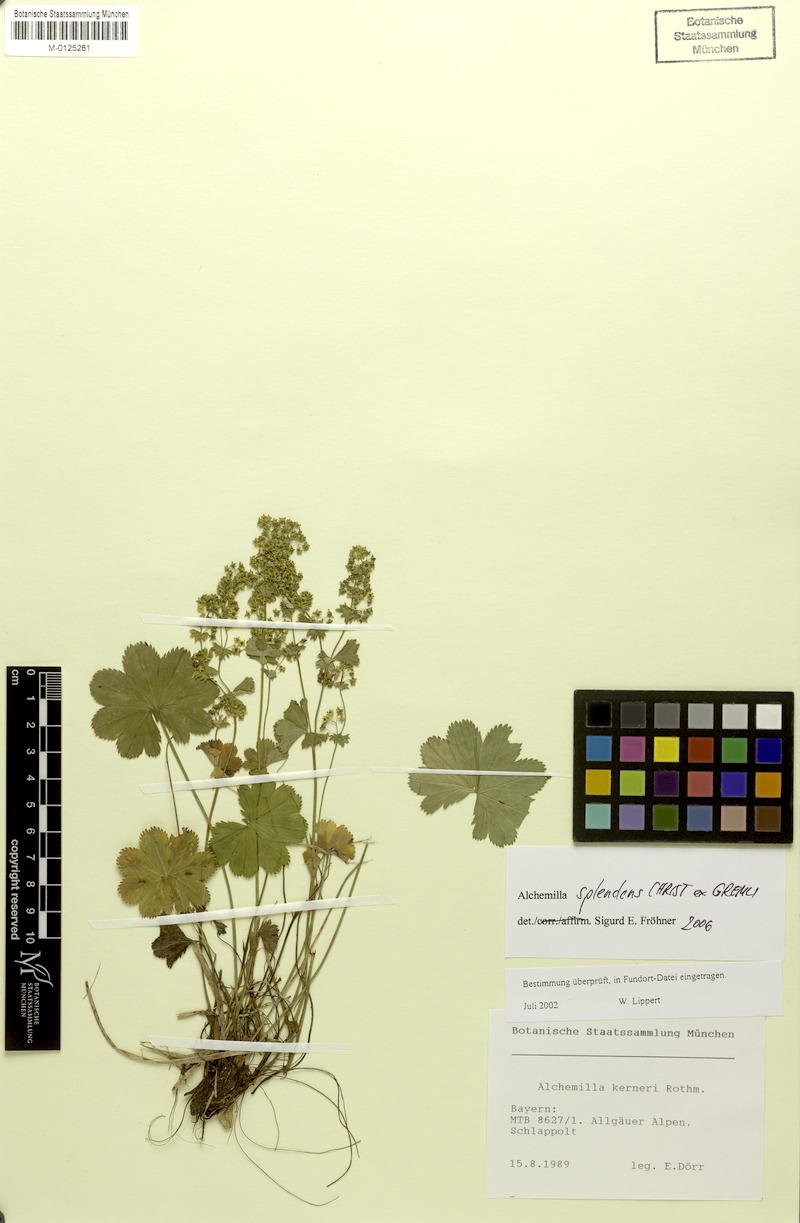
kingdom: Plantae
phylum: Tracheophyta
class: Magnoliopsida
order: Rosales
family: Rosaceae
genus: Alchemilla
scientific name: Alchemilla splendens
